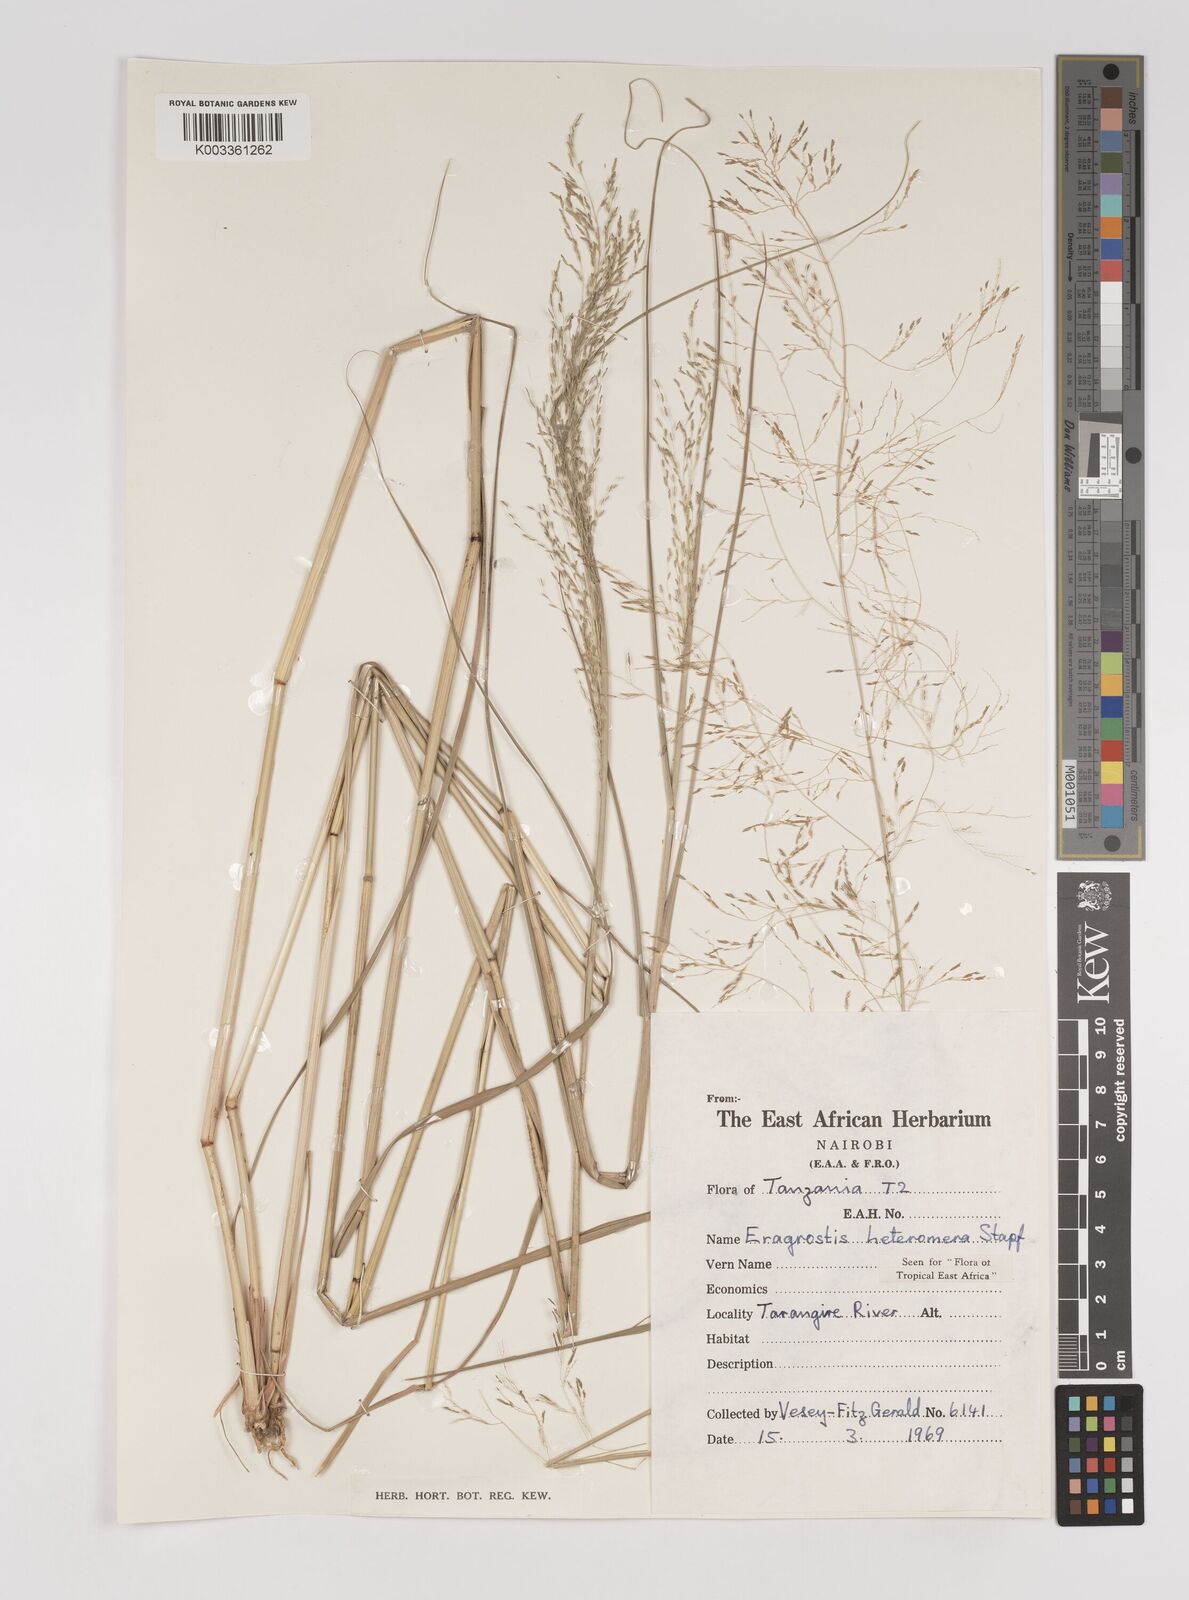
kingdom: Plantae
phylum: Tracheophyta
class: Liliopsida
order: Poales
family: Poaceae
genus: Eragrostis
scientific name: Eragrostis heteromera
